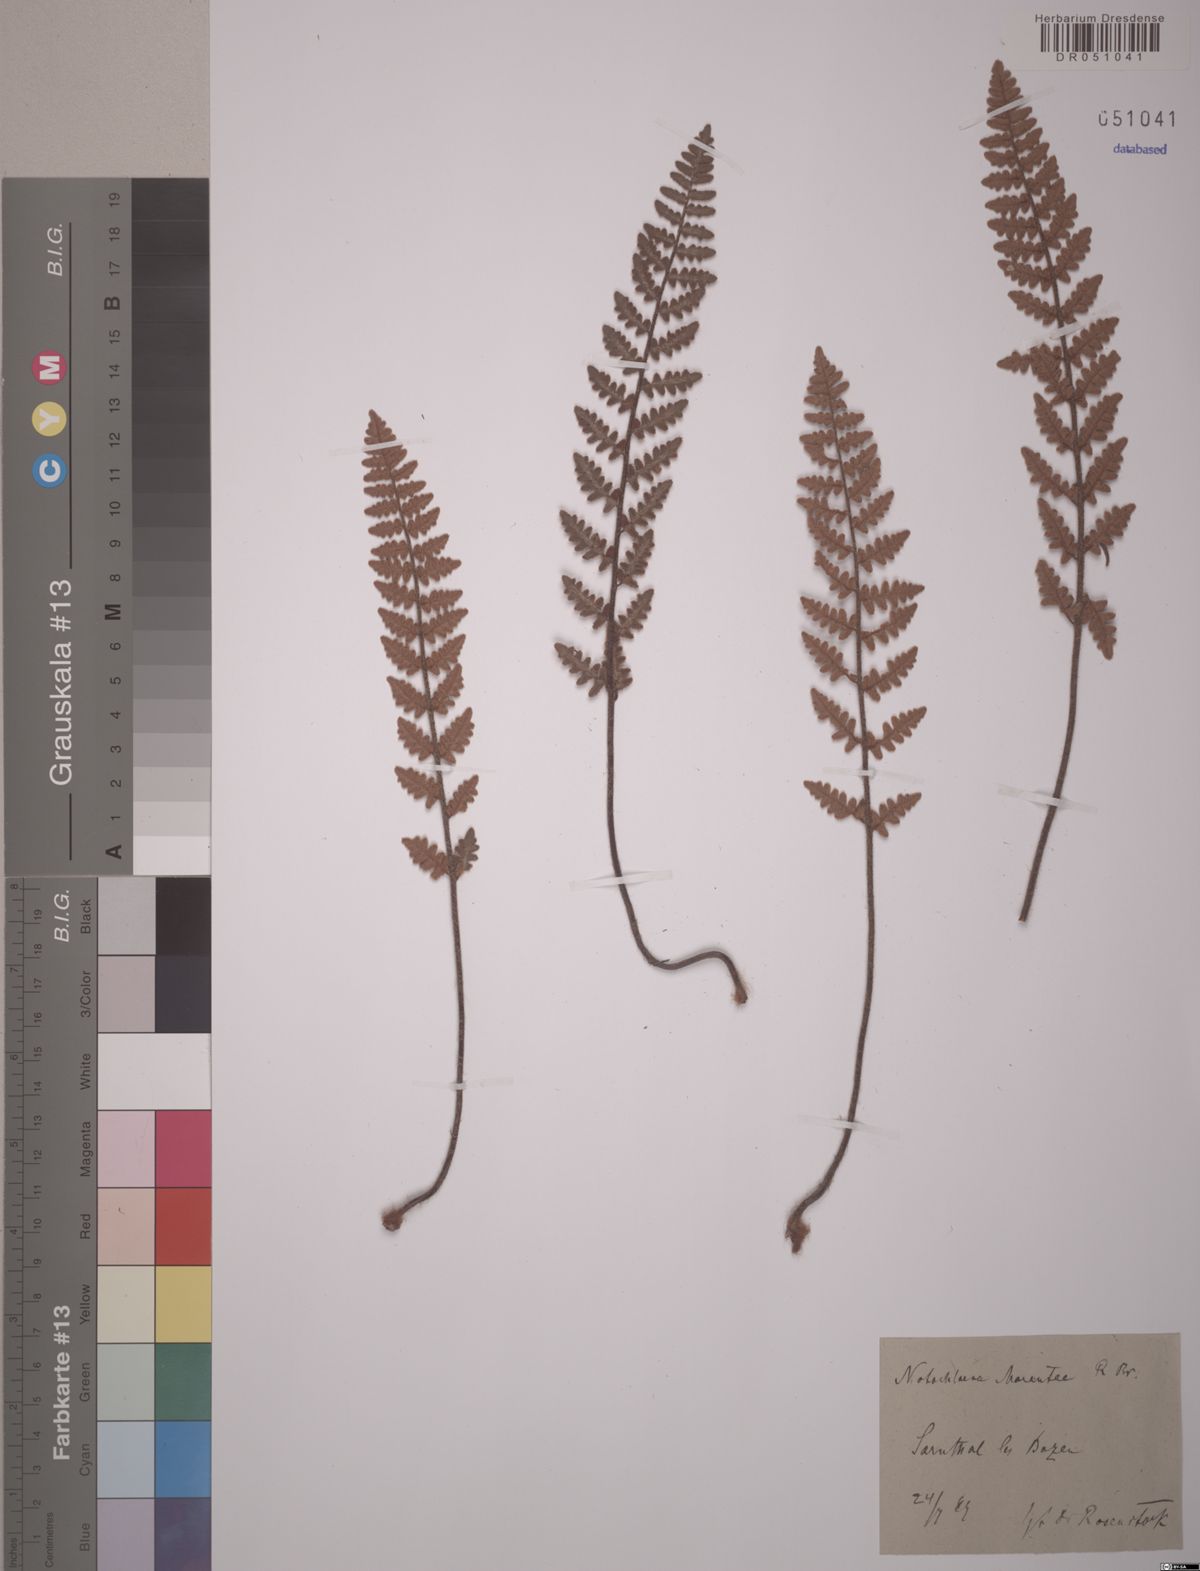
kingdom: Plantae
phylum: Tracheophyta
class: Polypodiopsida
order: Polypodiales
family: Pteridaceae
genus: Paragymnopteris
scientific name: Paragymnopteris marantae
